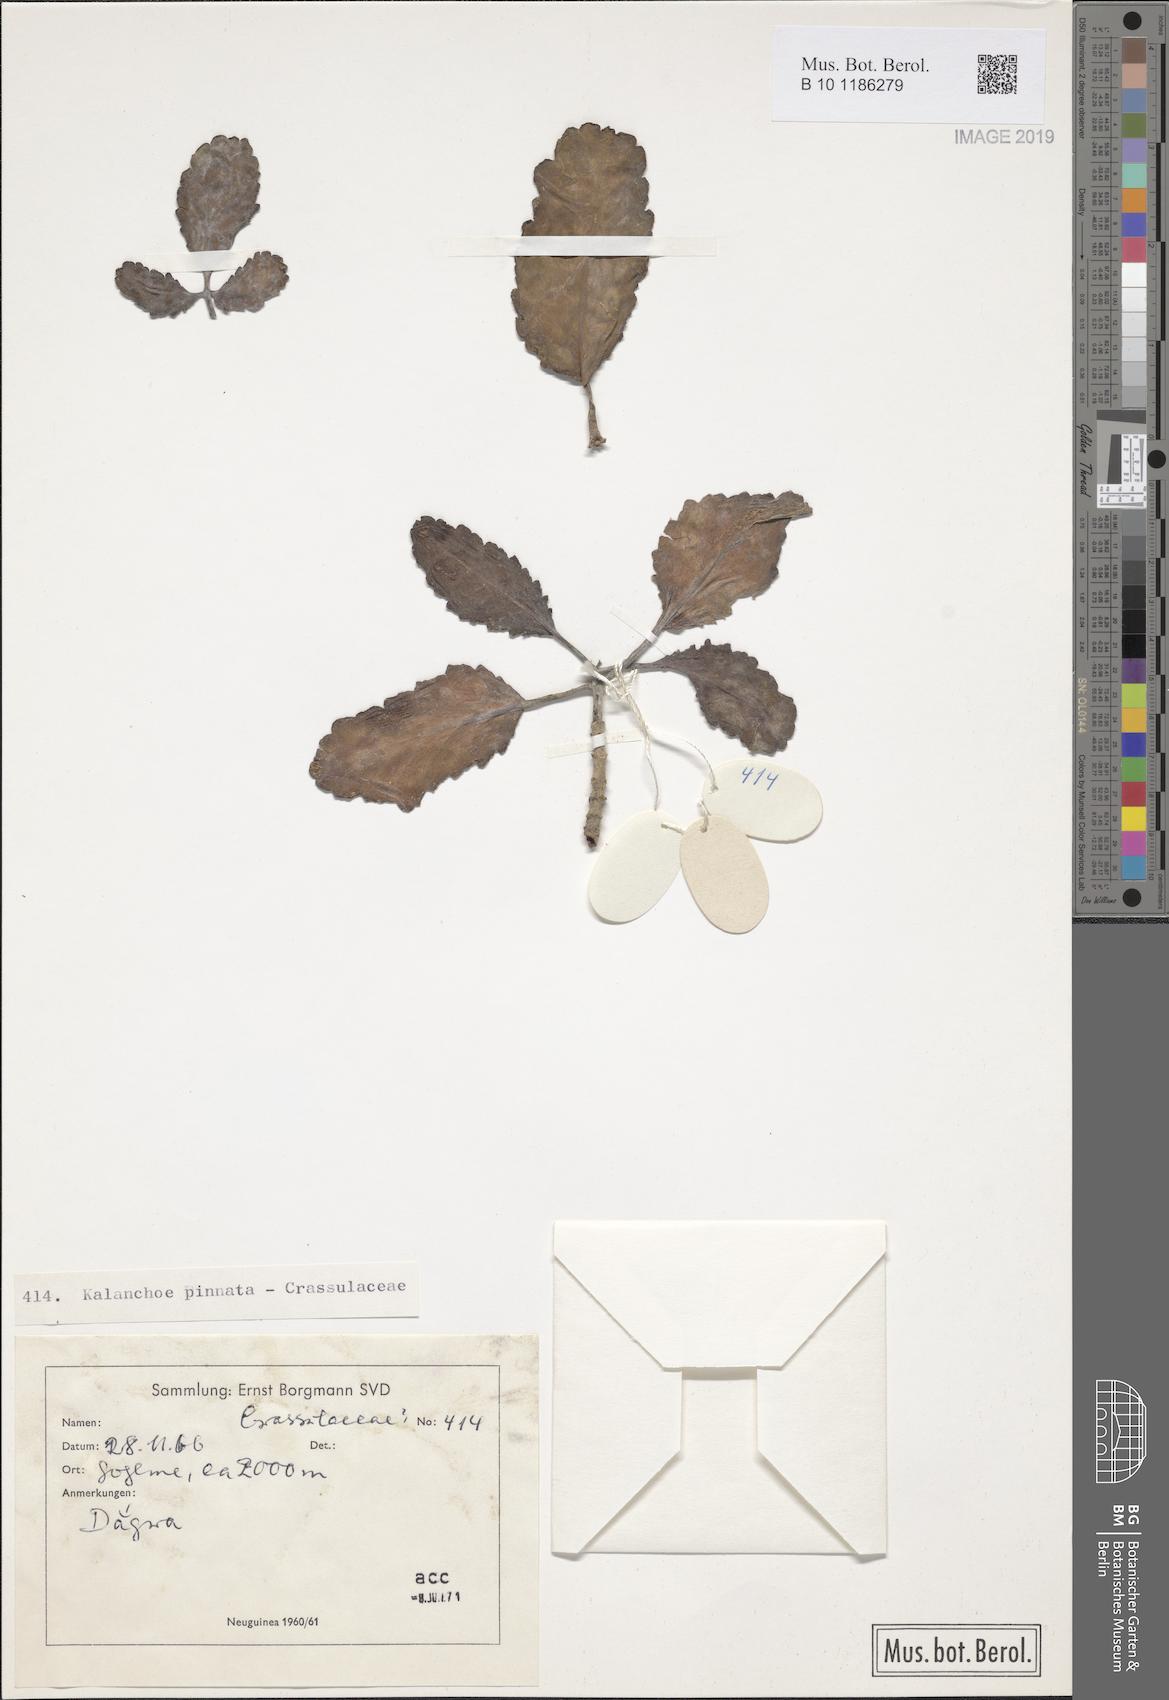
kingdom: Plantae
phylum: Tracheophyta
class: Magnoliopsida
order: Saxifragales
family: Crassulaceae
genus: Kalanchoe
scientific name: Kalanchoe pinnata
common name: Cathedral bells
